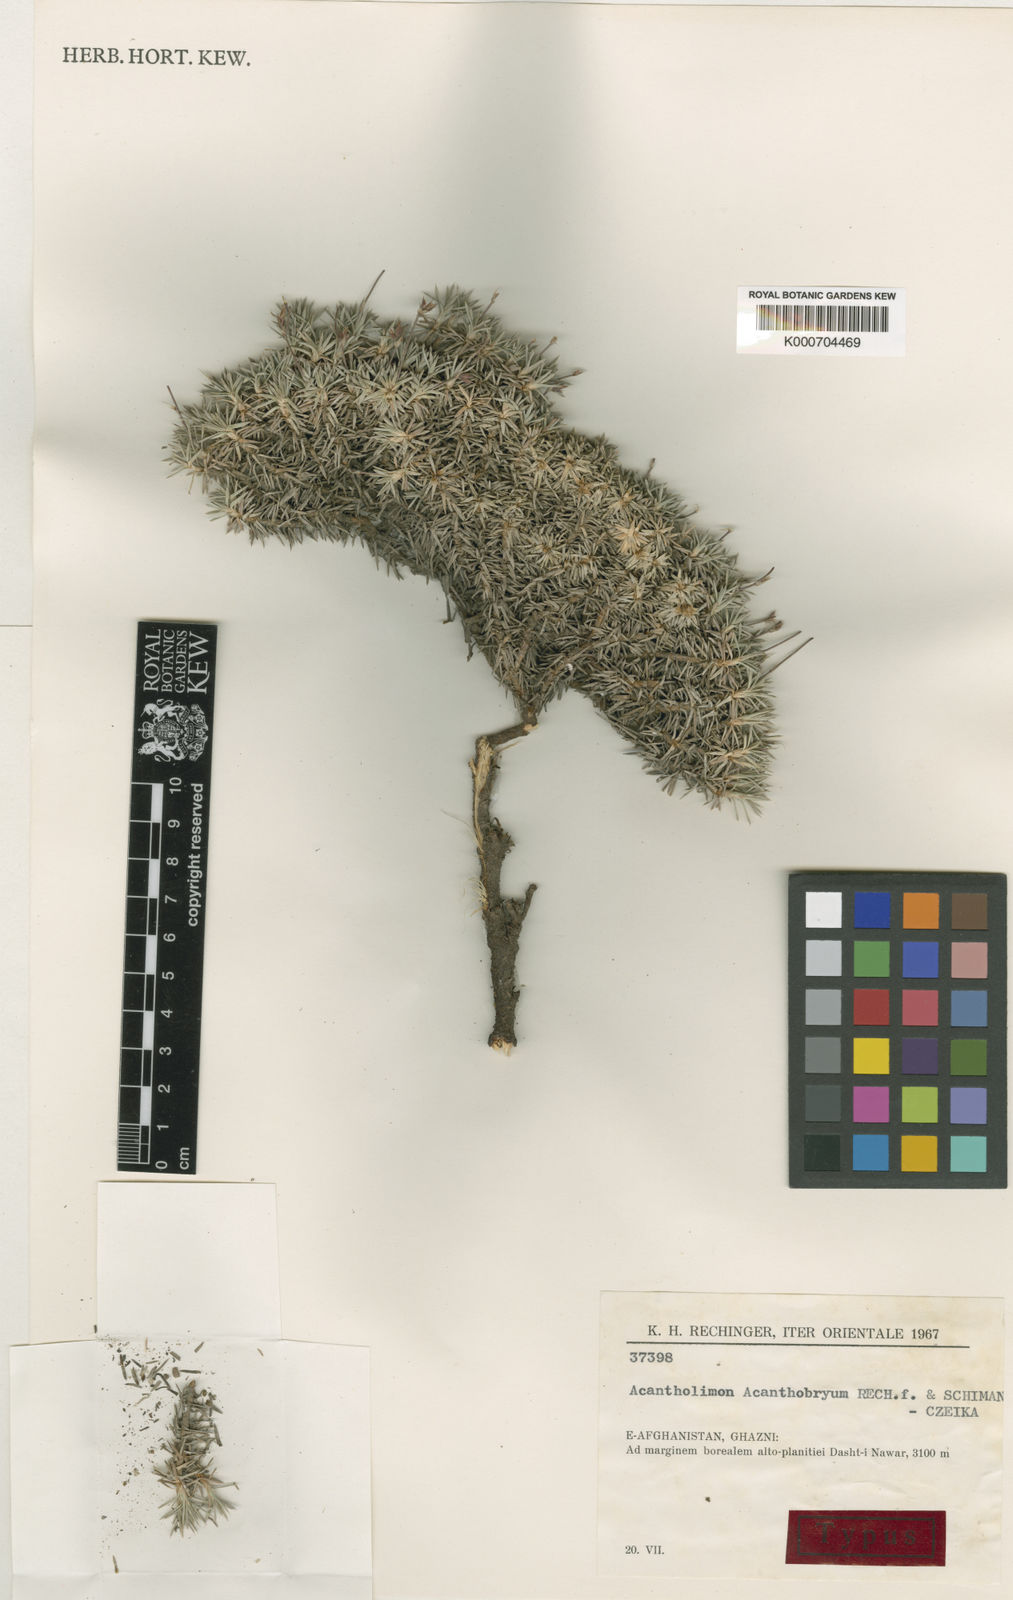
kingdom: Plantae
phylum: Tracheophyta
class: Magnoliopsida
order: Caryophyllales
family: Plumbaginaceae
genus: Acantholimon
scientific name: Acantholimon acanthobryum
